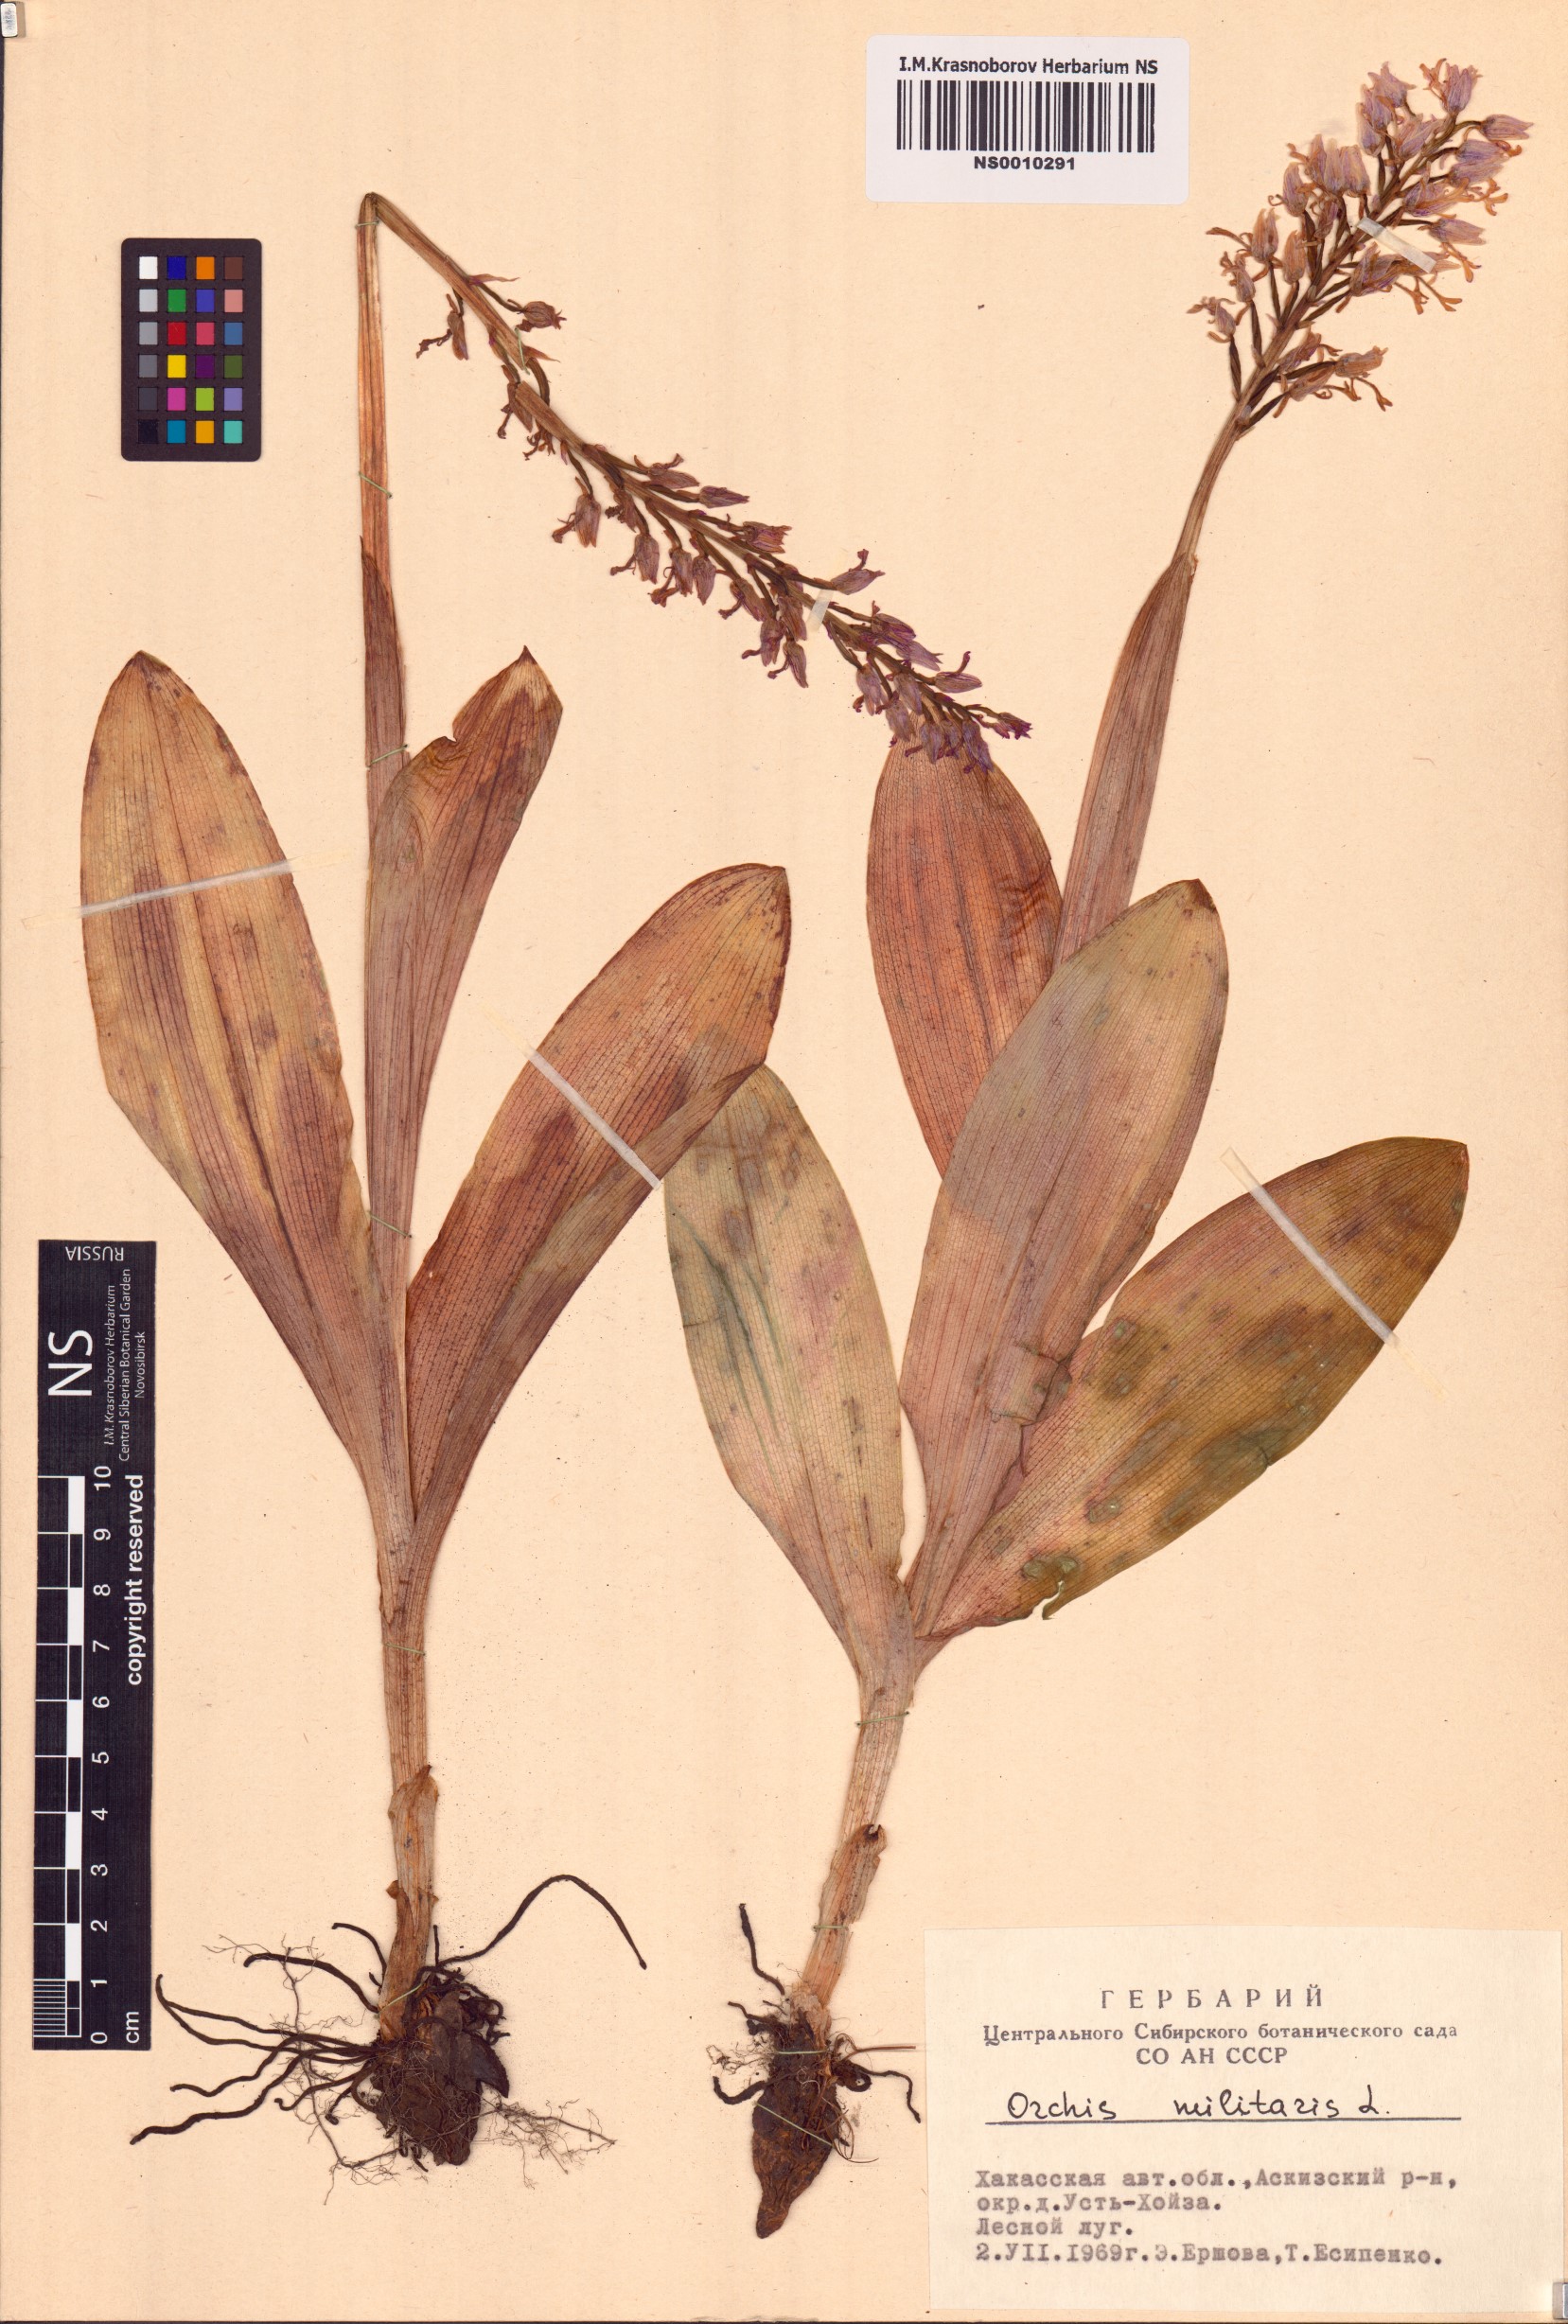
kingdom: Plantae
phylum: Tracheophyta
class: Liliopsida
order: Asparagales
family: Orchidaceae
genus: Orchis
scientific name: Orchis militaris
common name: Military orchid
